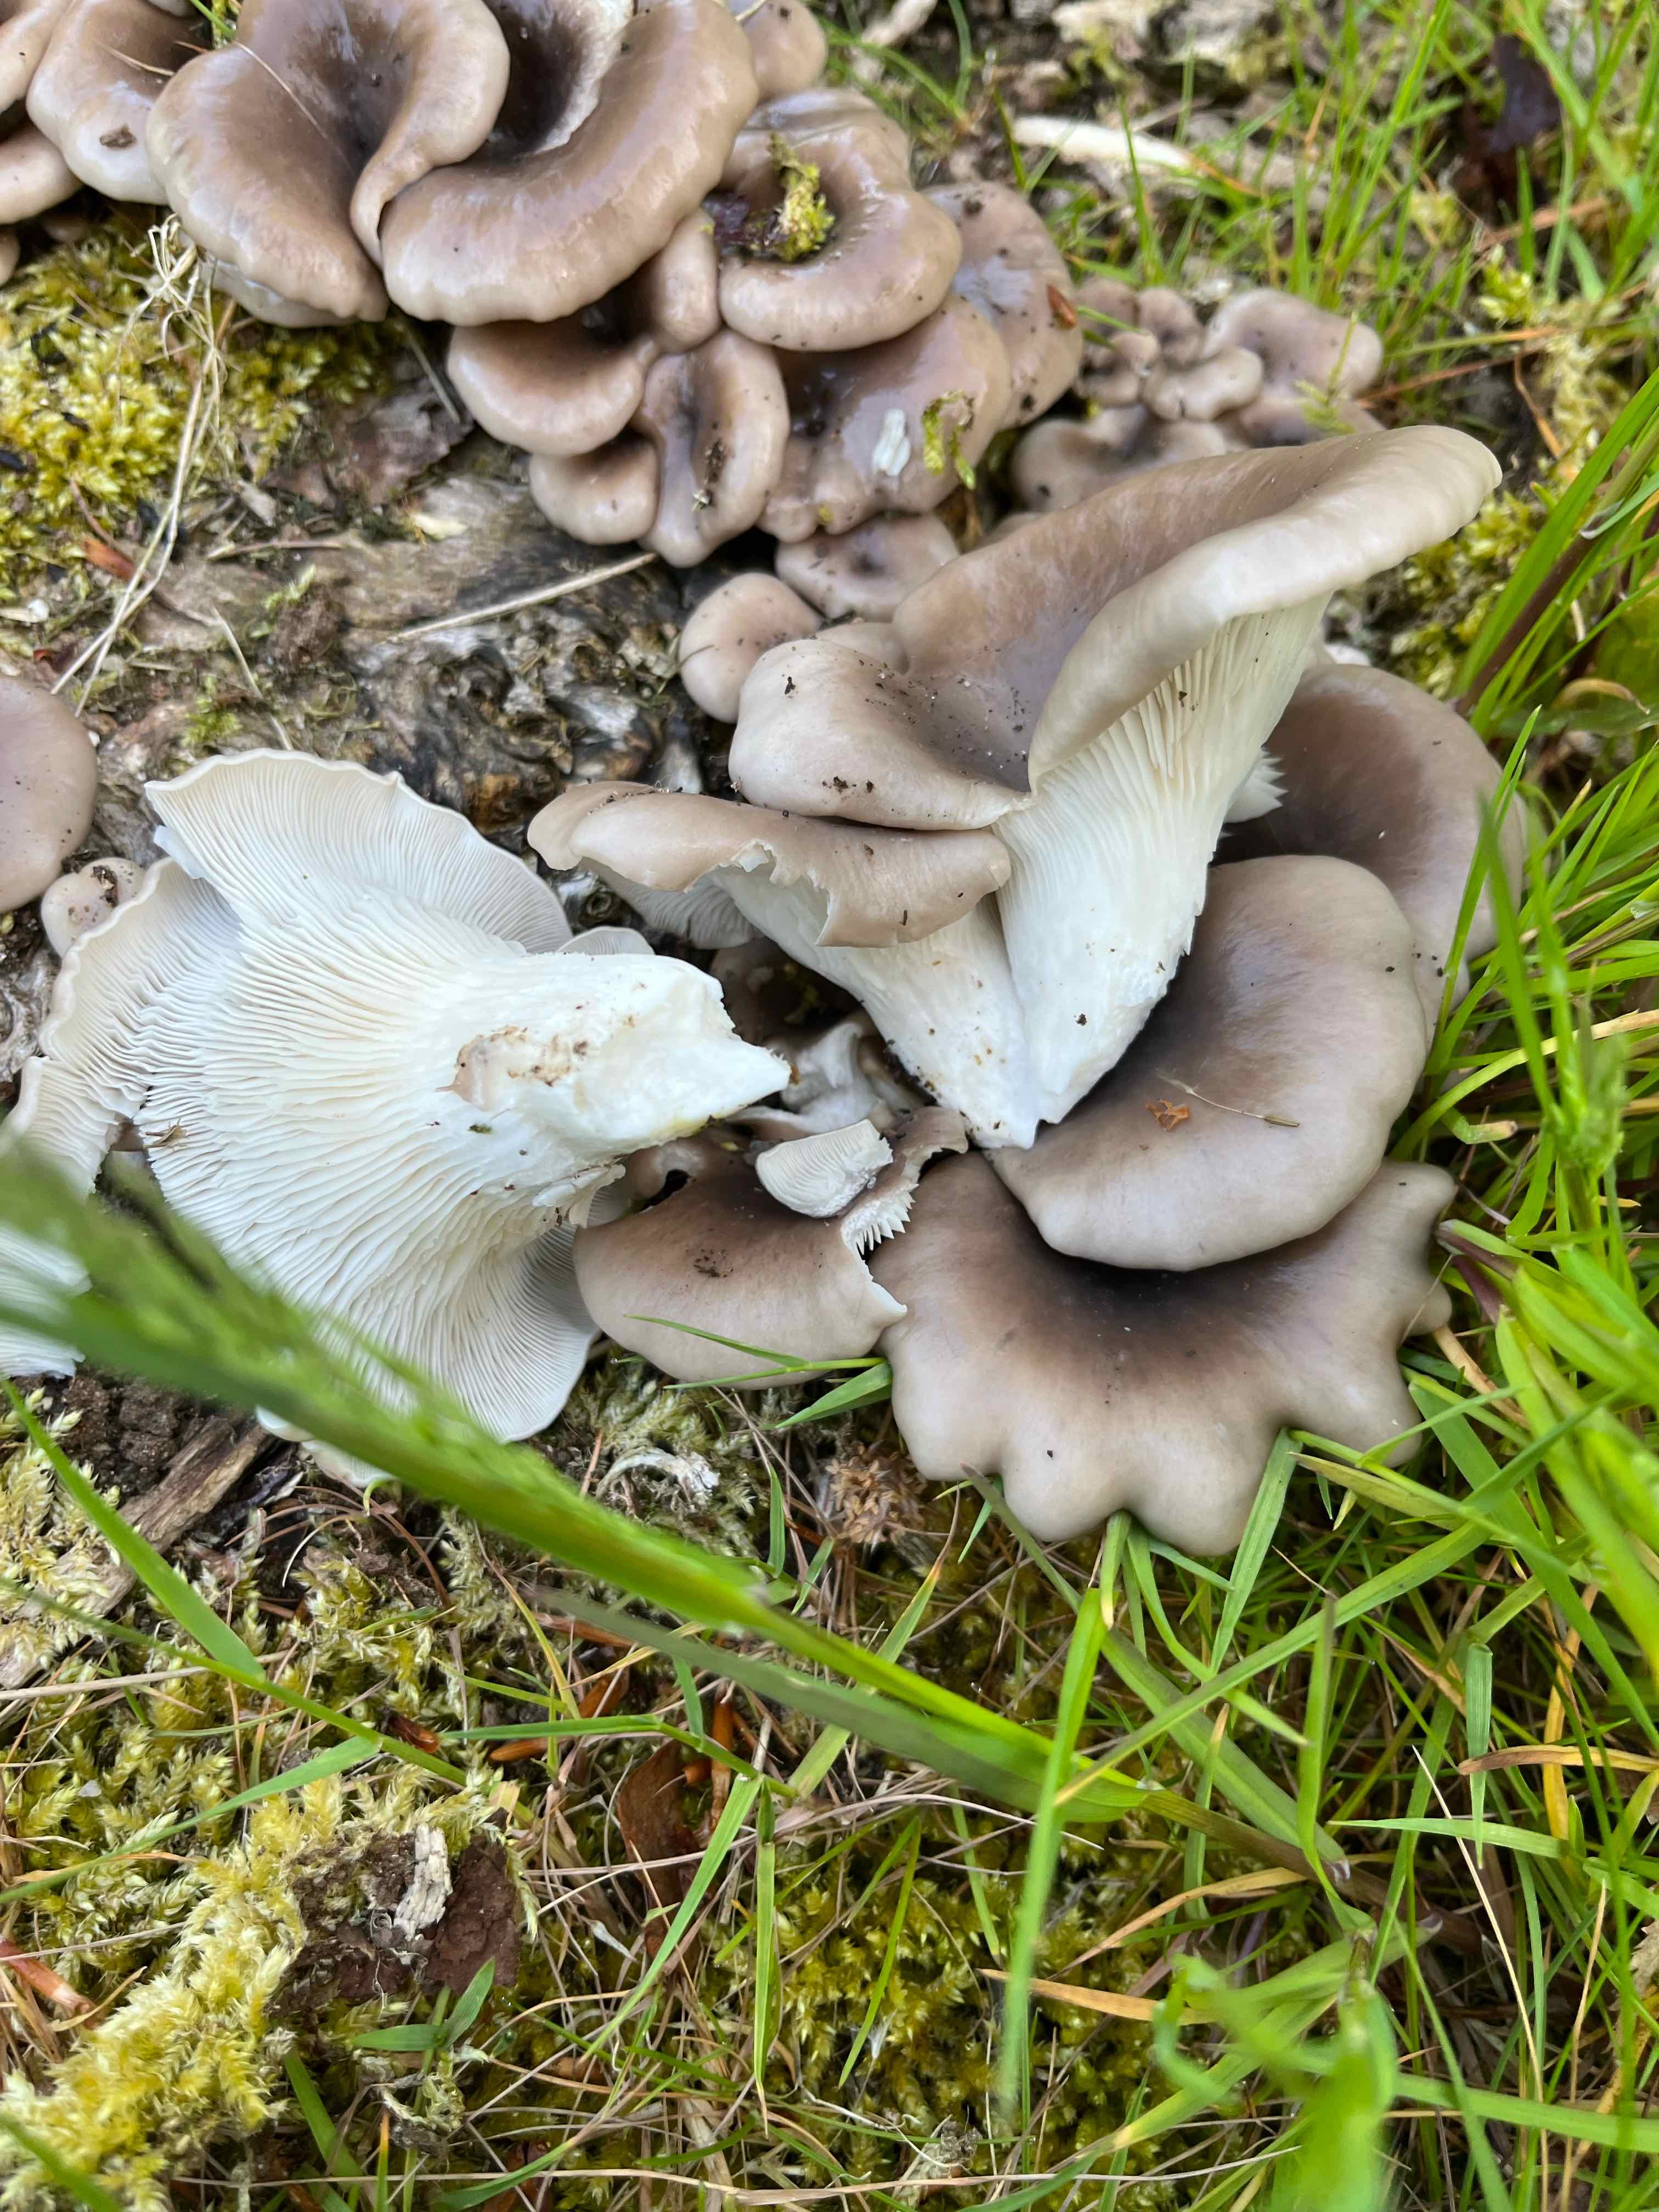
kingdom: Fungi
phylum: Basidiomycota
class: Agaricomycetes
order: Agaricales
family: Pleurotaceae
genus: Pleurotus
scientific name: Pleurotus pulmonarius
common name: sommer-østershat
